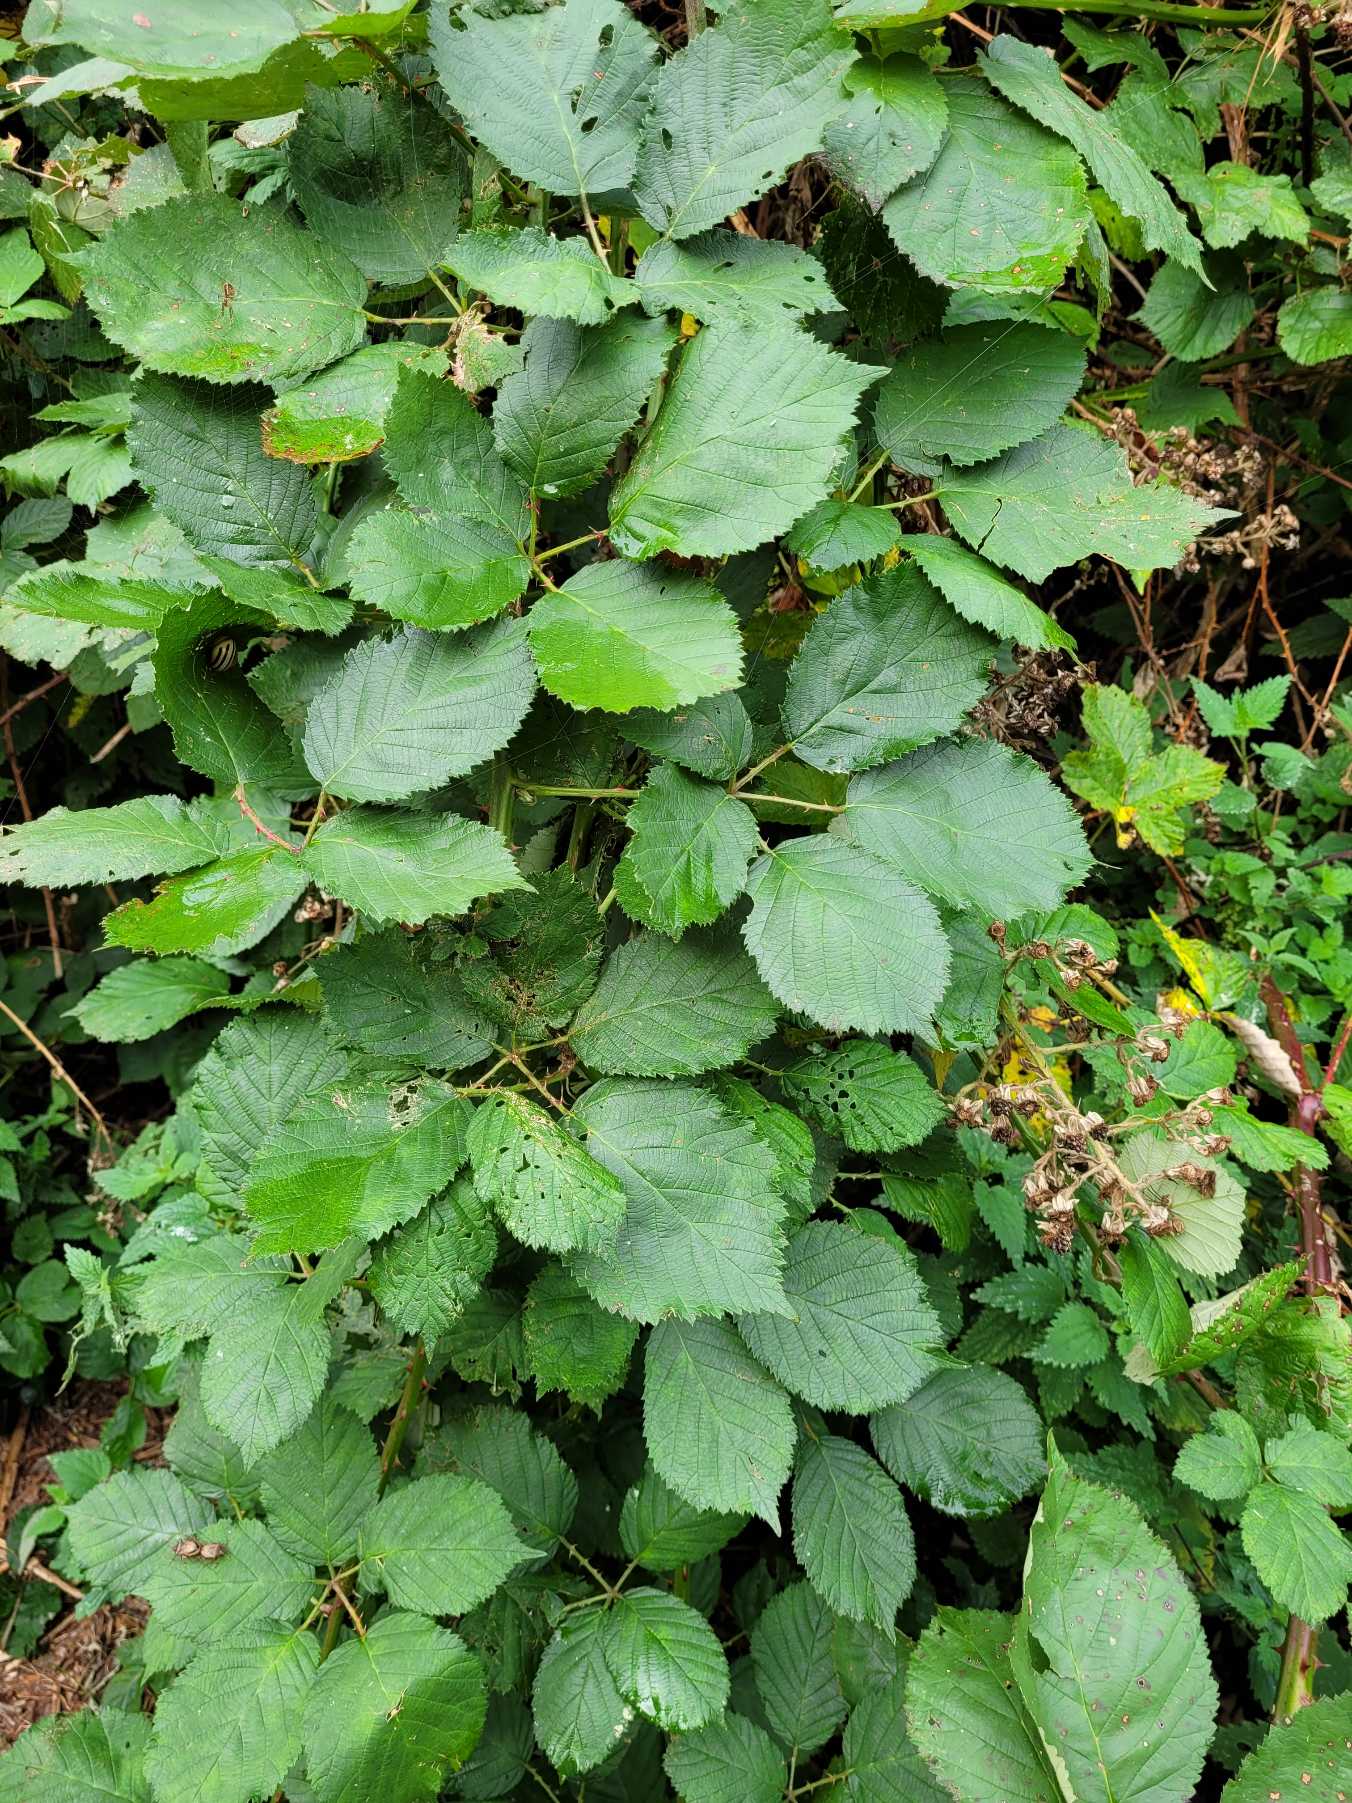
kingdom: Plantae
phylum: Tracheophyta
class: Magnoliopsida
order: Rosales
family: Rosaceae
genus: Rubus
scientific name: Rubus
